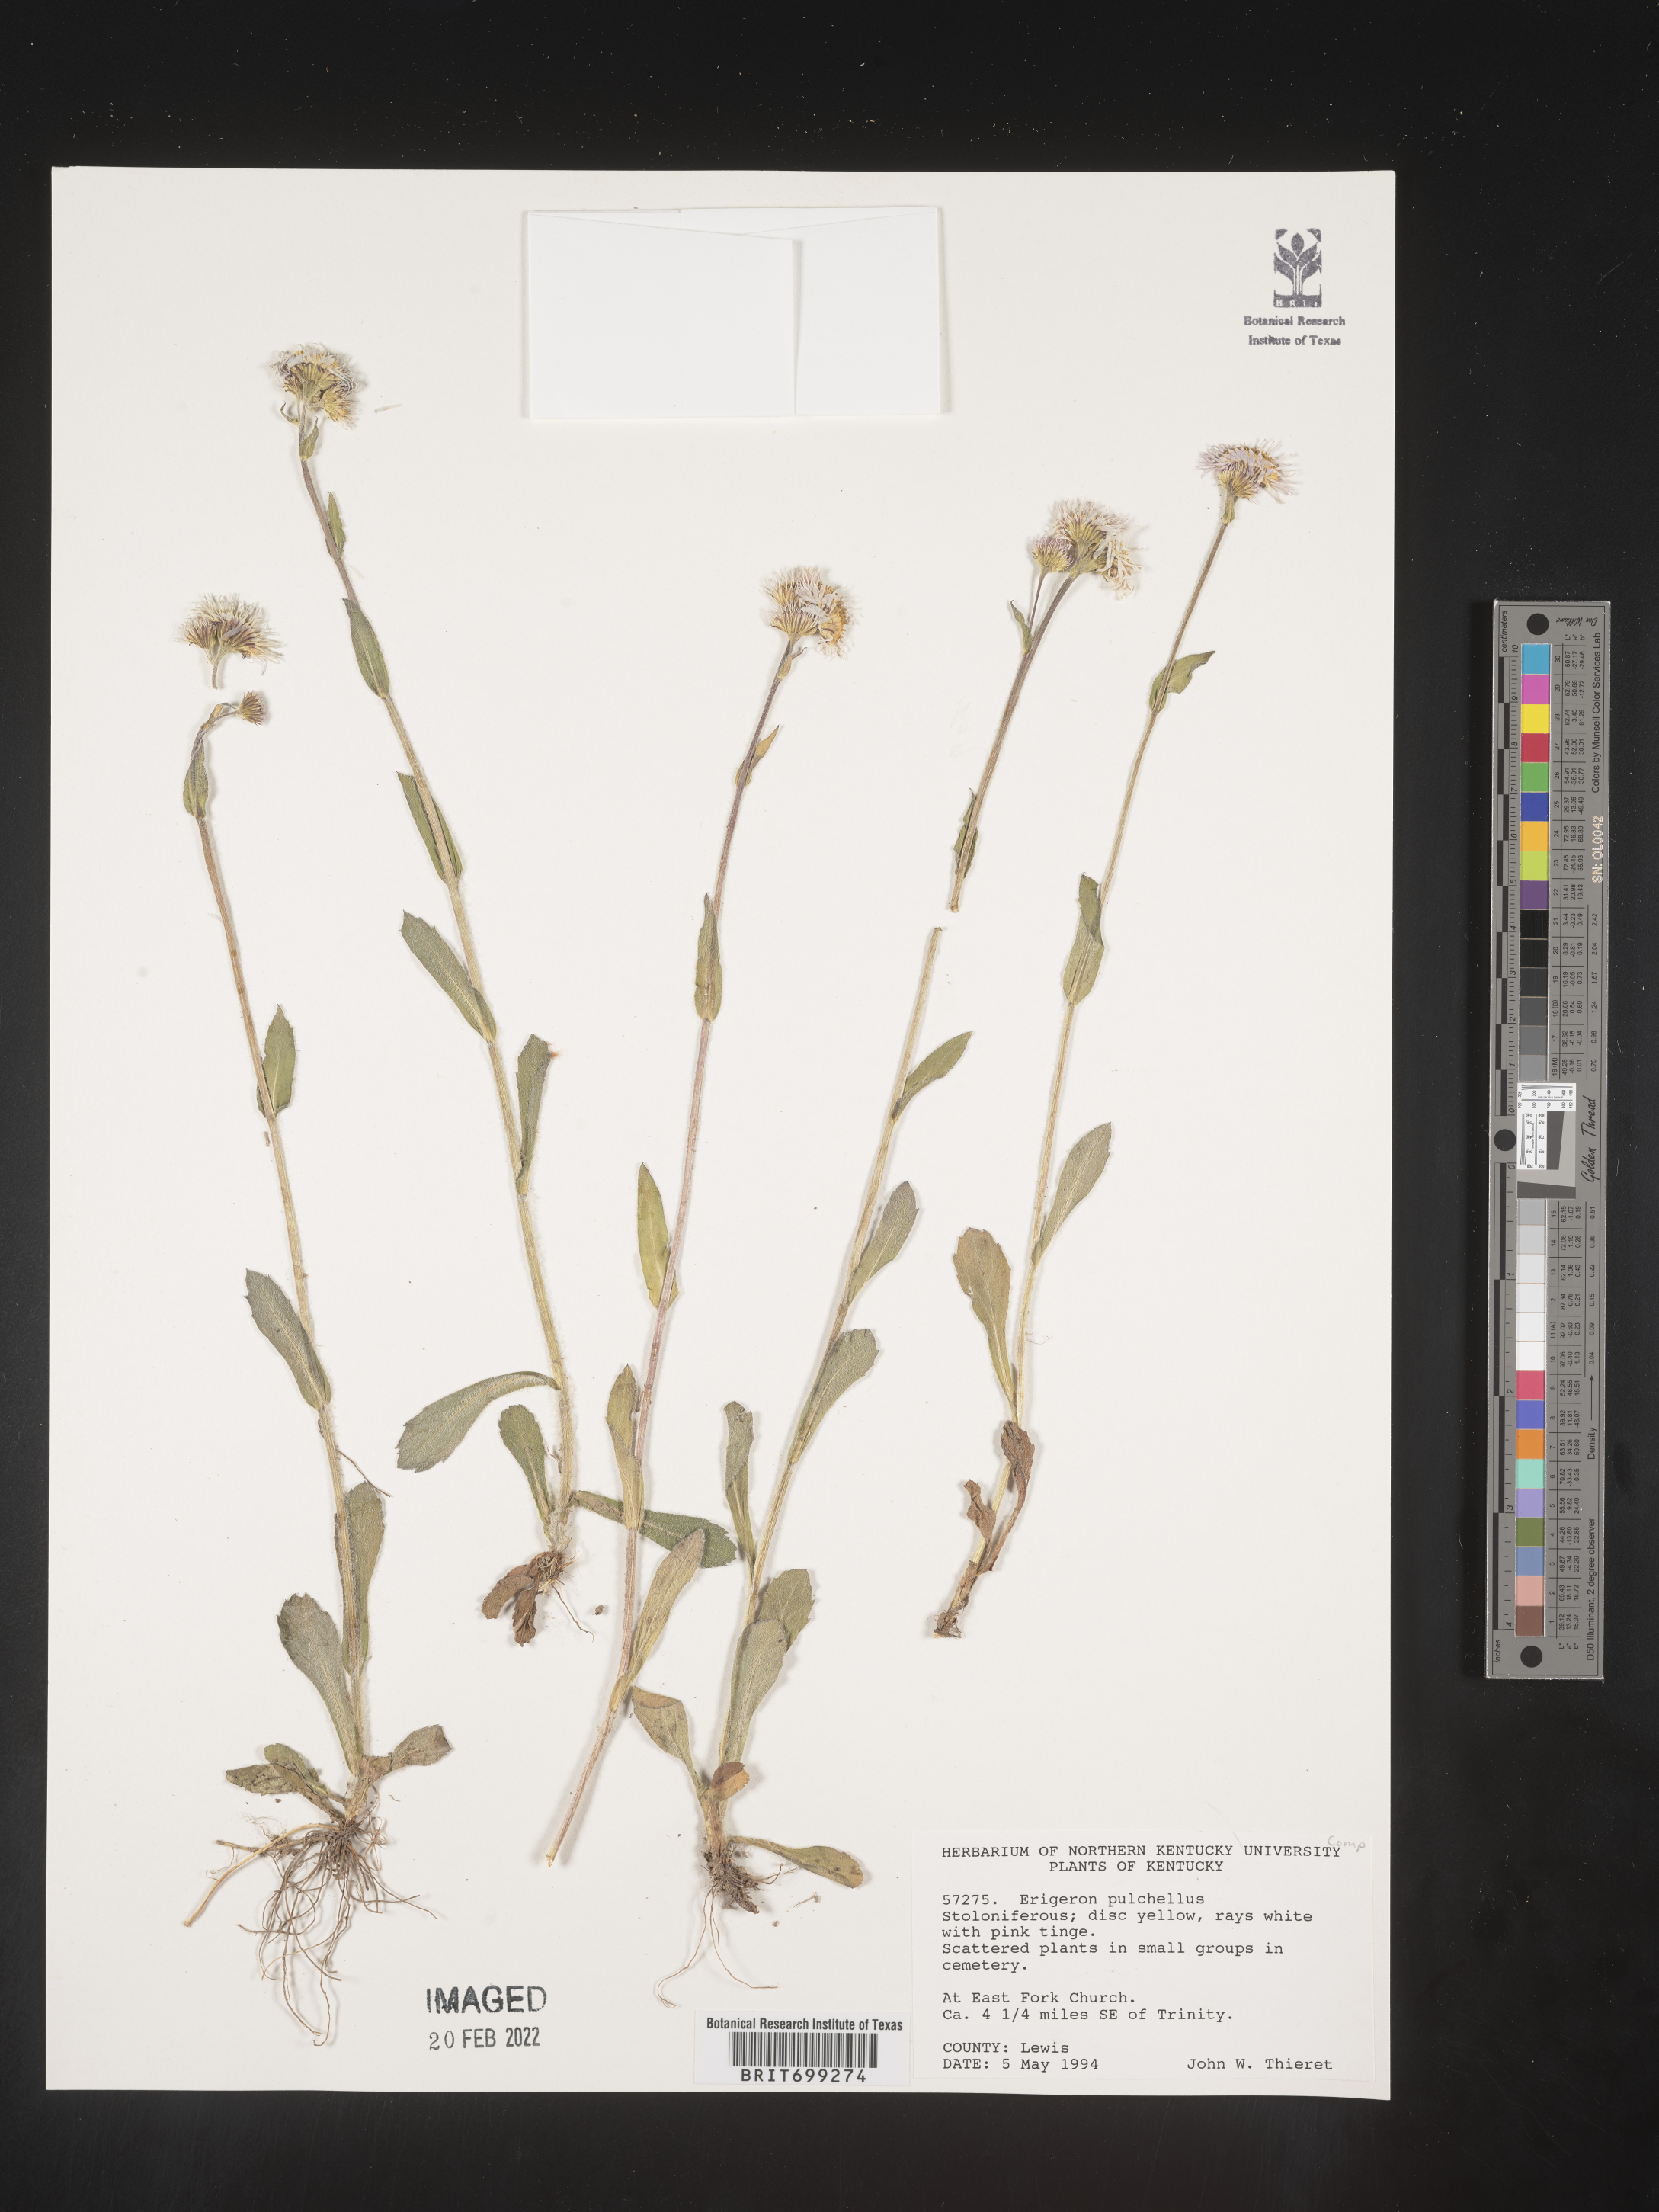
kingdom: Plantae
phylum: Tracheophyta
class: Magnoliopsida
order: Asterales
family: Asteraceae
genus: Erigeron
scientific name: Erigeron pulchellus
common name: Hairy fleabane
